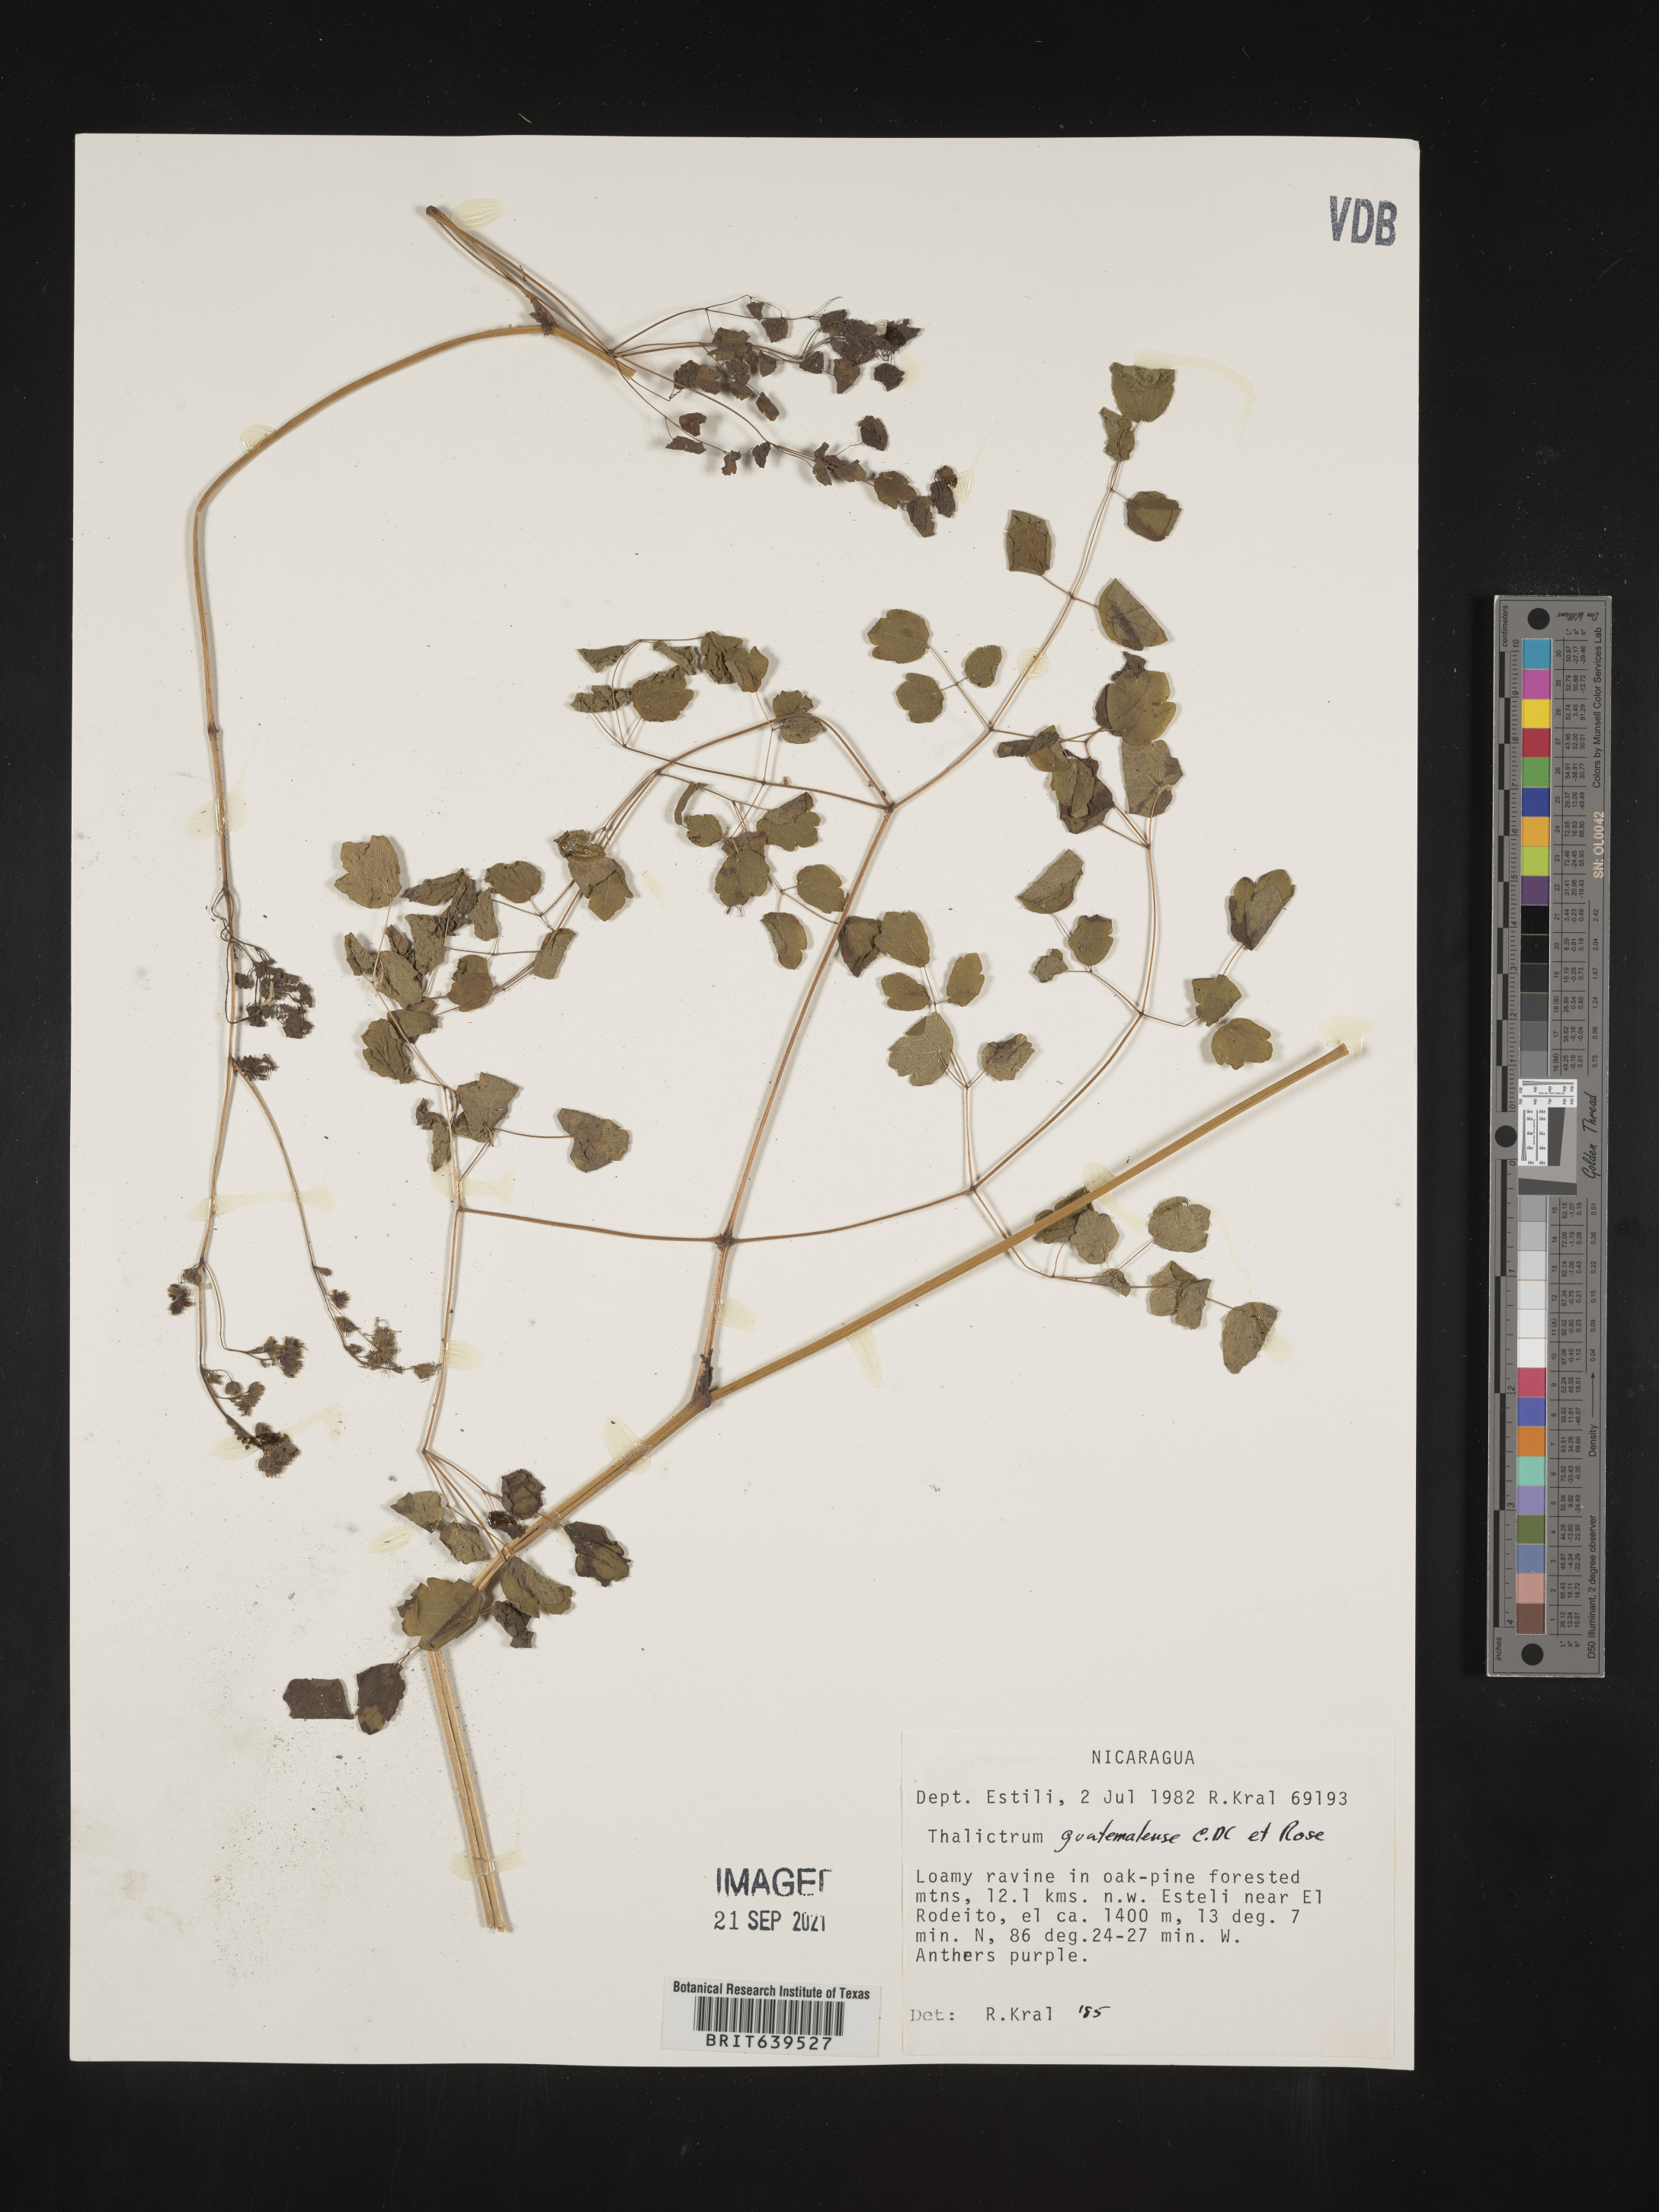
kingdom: Plantae
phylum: Tracheophyta
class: Magnoliopsida
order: Ranunculales
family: Ranunculaceae
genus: Thalictrum
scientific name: Thalictrum
